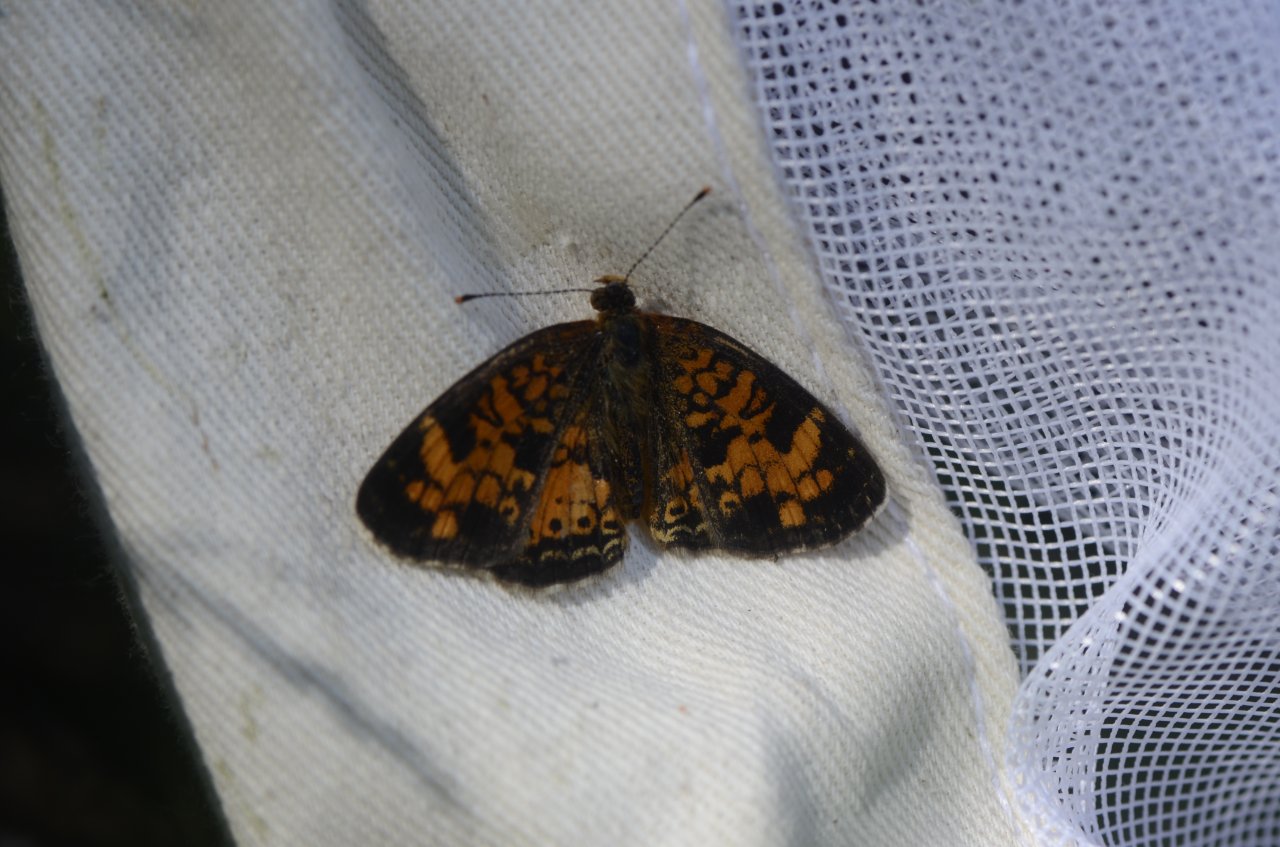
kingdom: Animalia
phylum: Arthropoda
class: Insecta
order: Lepidoptera
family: Nymphalidae
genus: Phyciodes
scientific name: Phyciodes tharos
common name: Northern Crescent
